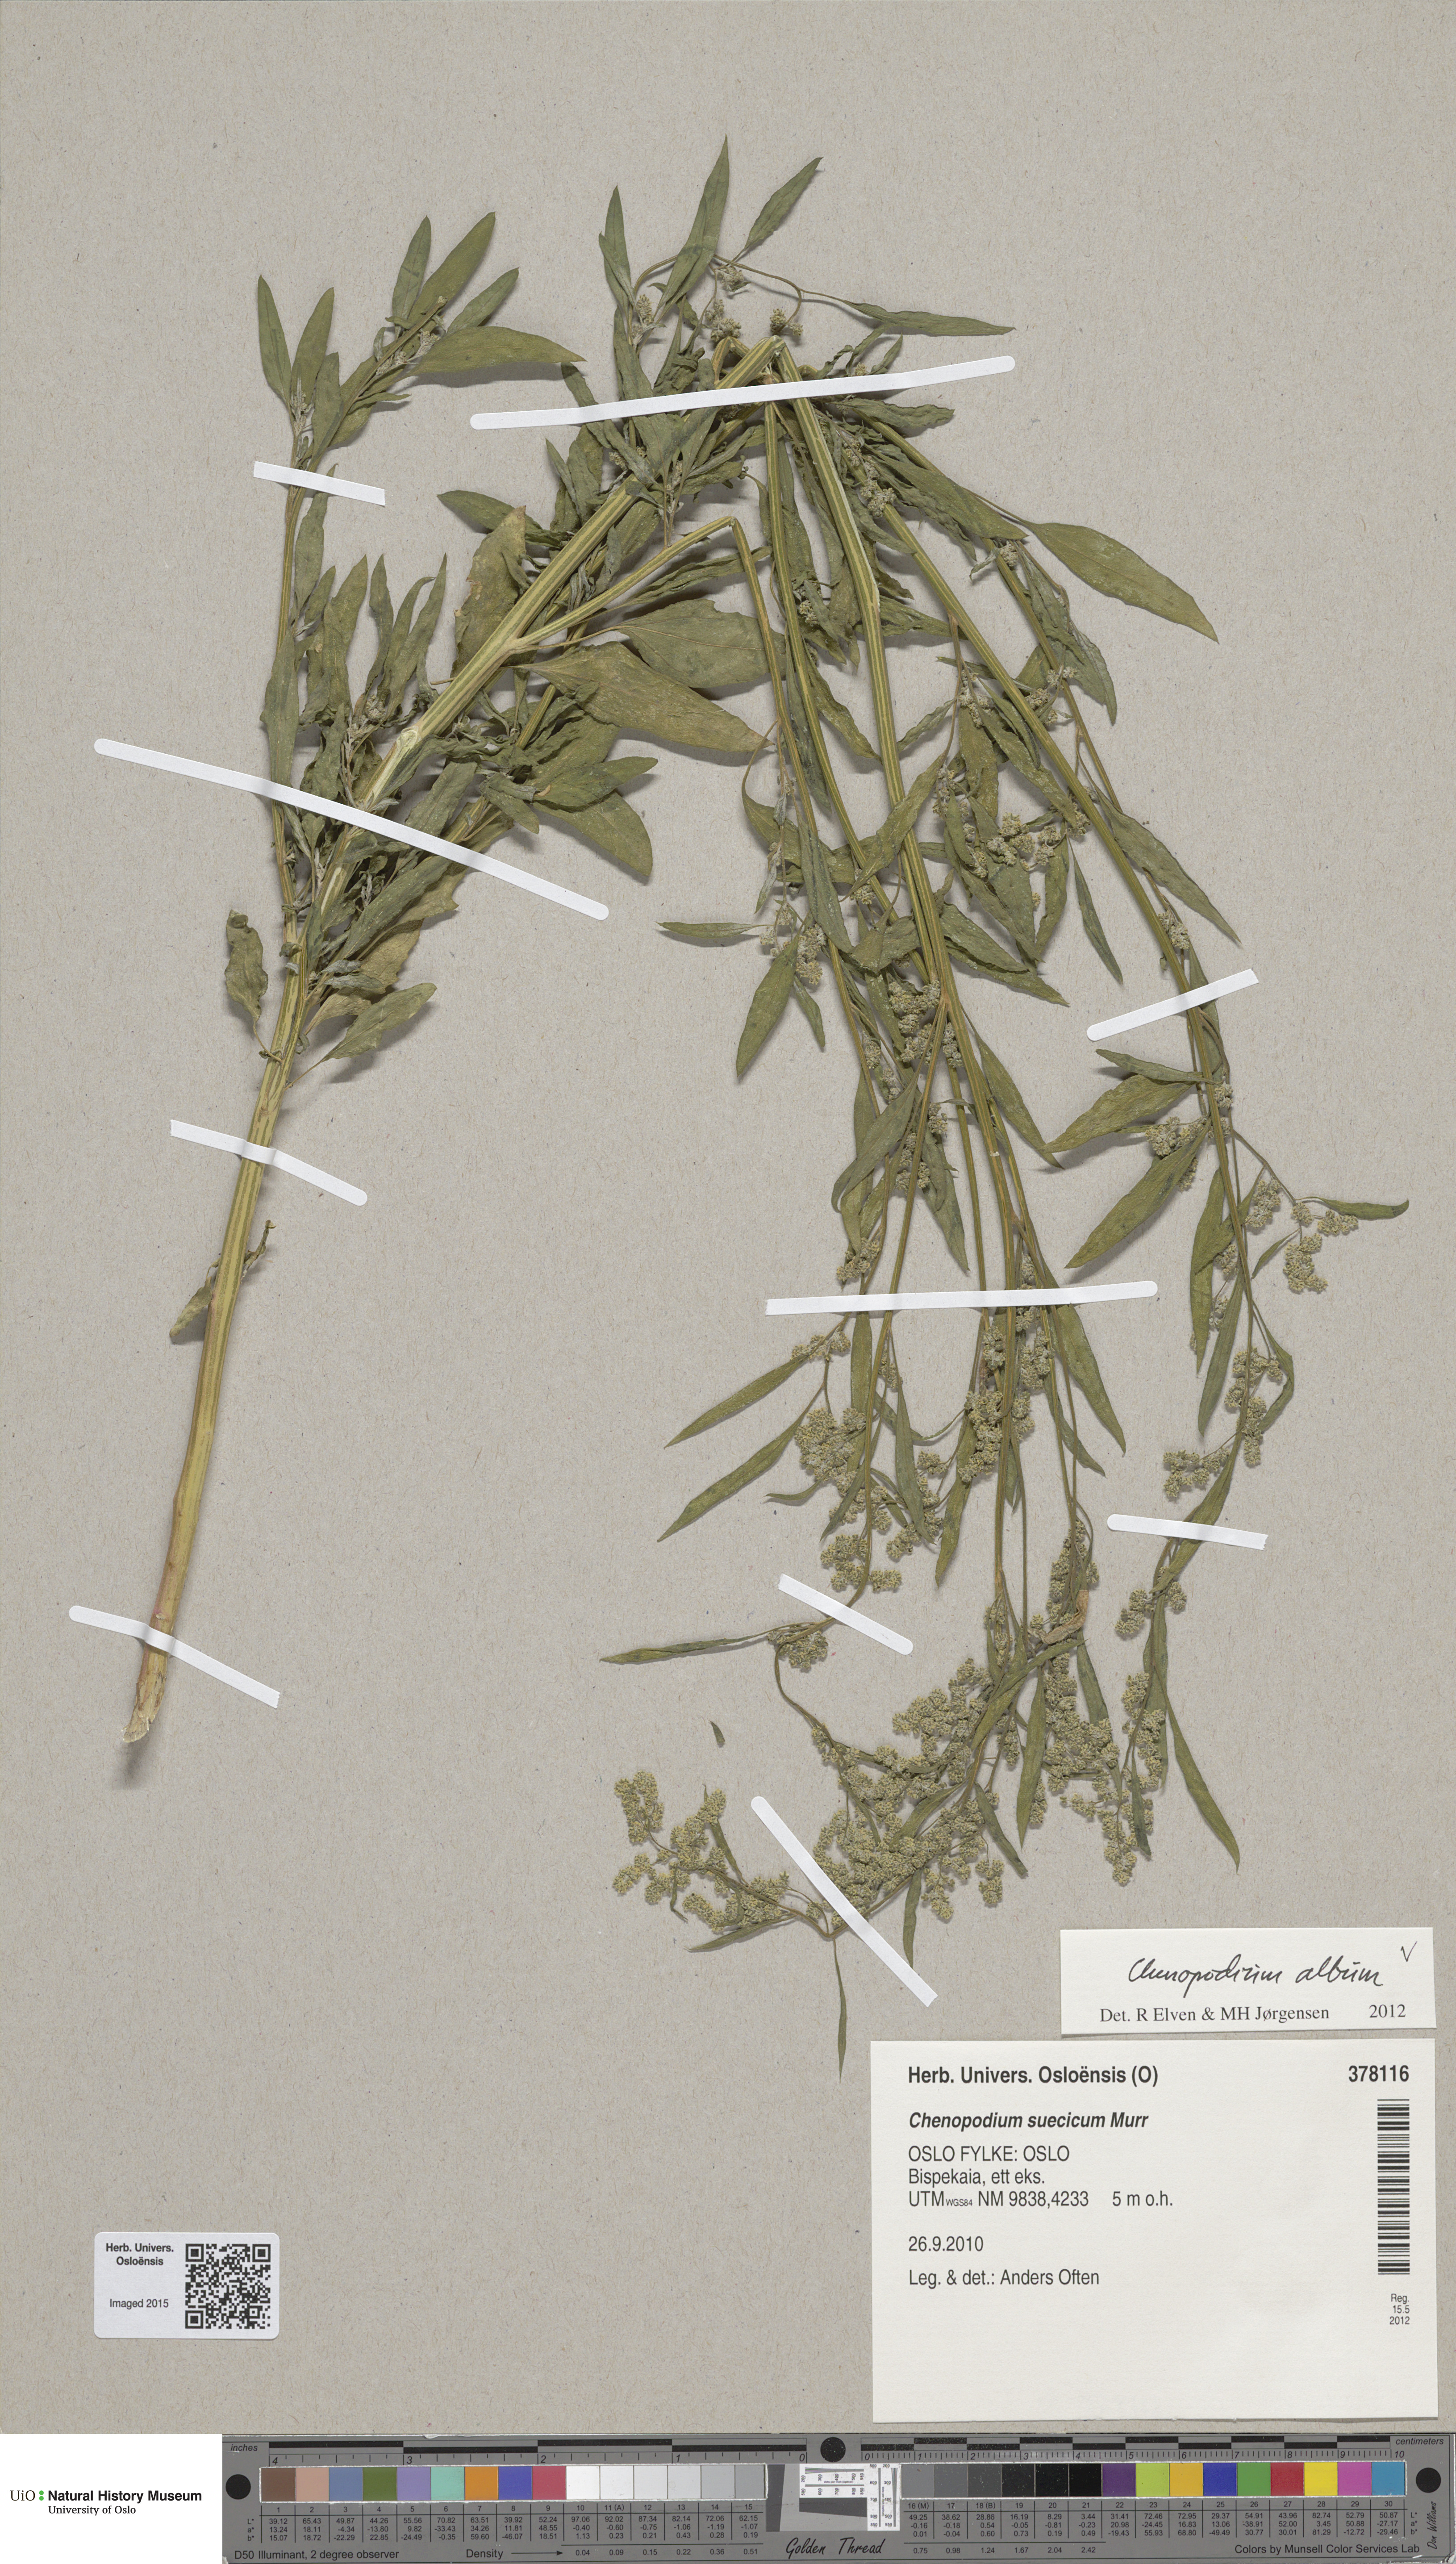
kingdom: Plantae
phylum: Tracheophyta
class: Magnoliopsida
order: Caryophyllales
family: Amaranthaceae
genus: Chenopodium
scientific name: Chenopodium album
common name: Fat-hen
